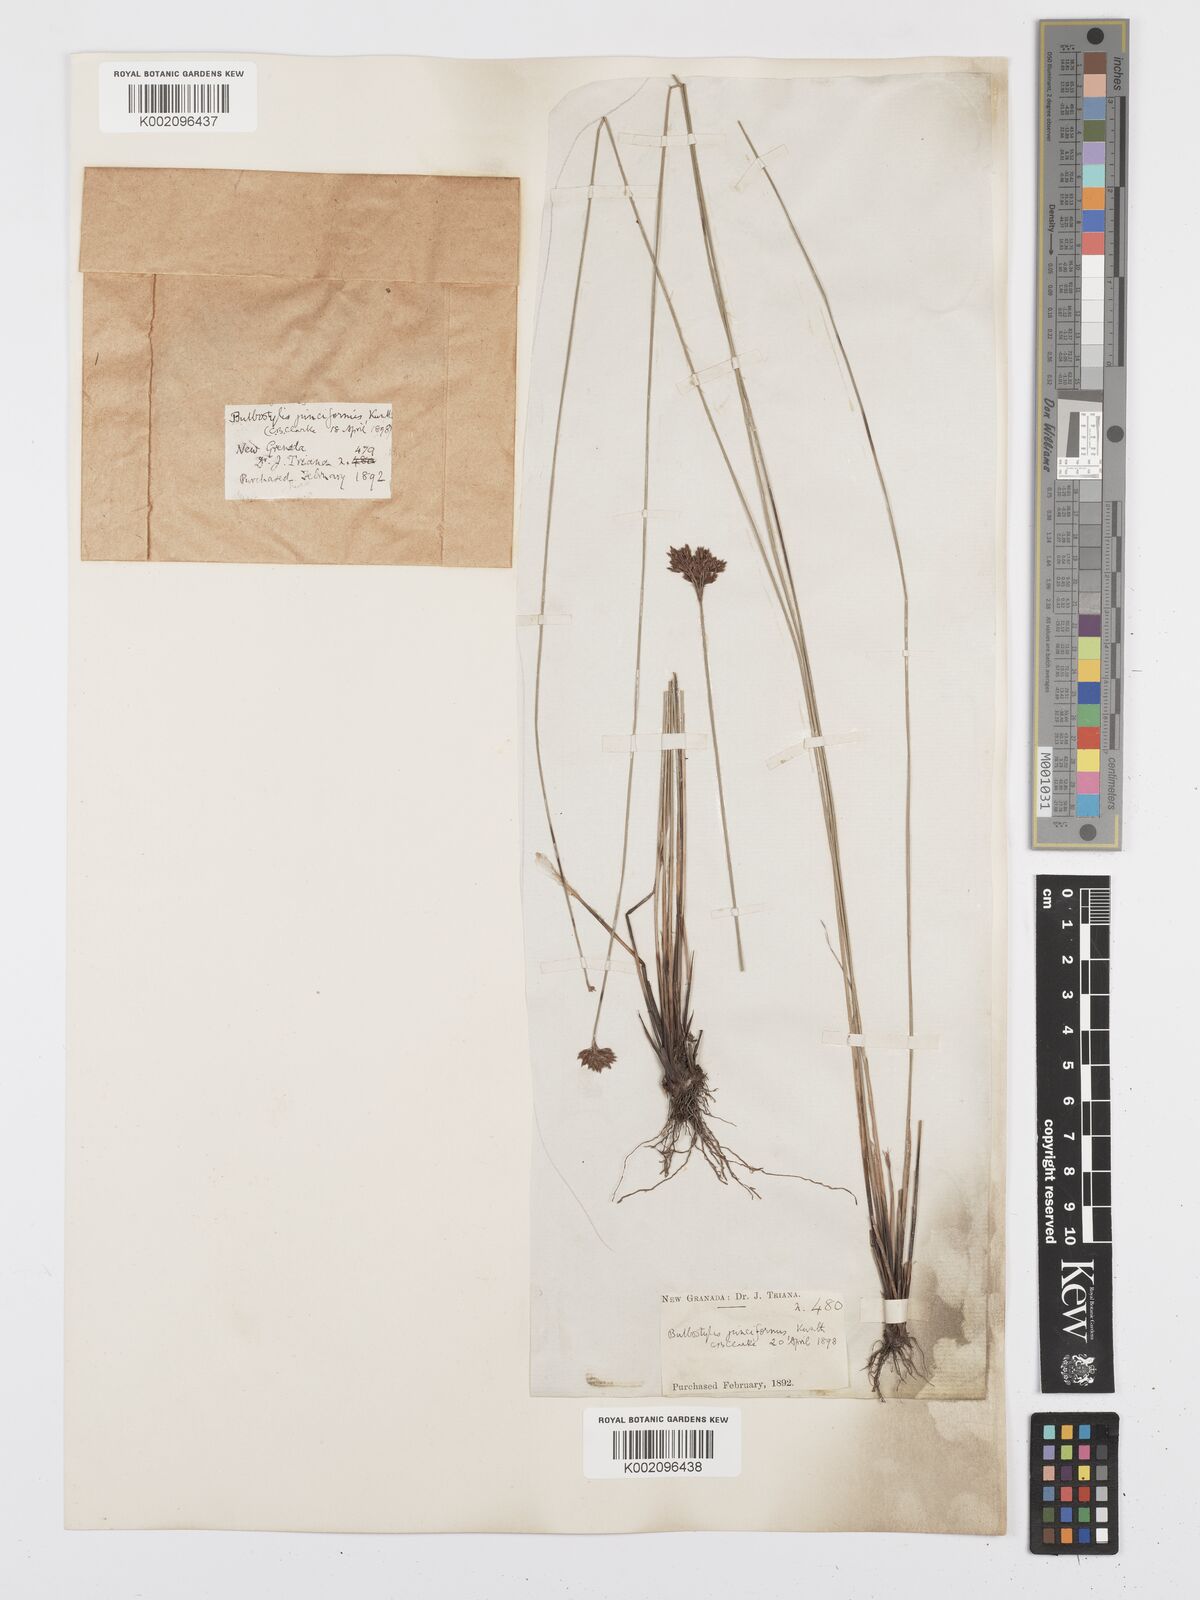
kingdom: Plantae
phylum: Tracheophyta
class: Liliopsida
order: Poales
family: Cyperaceae
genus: Bulbostylis
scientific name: Bulbostylis junciformis
